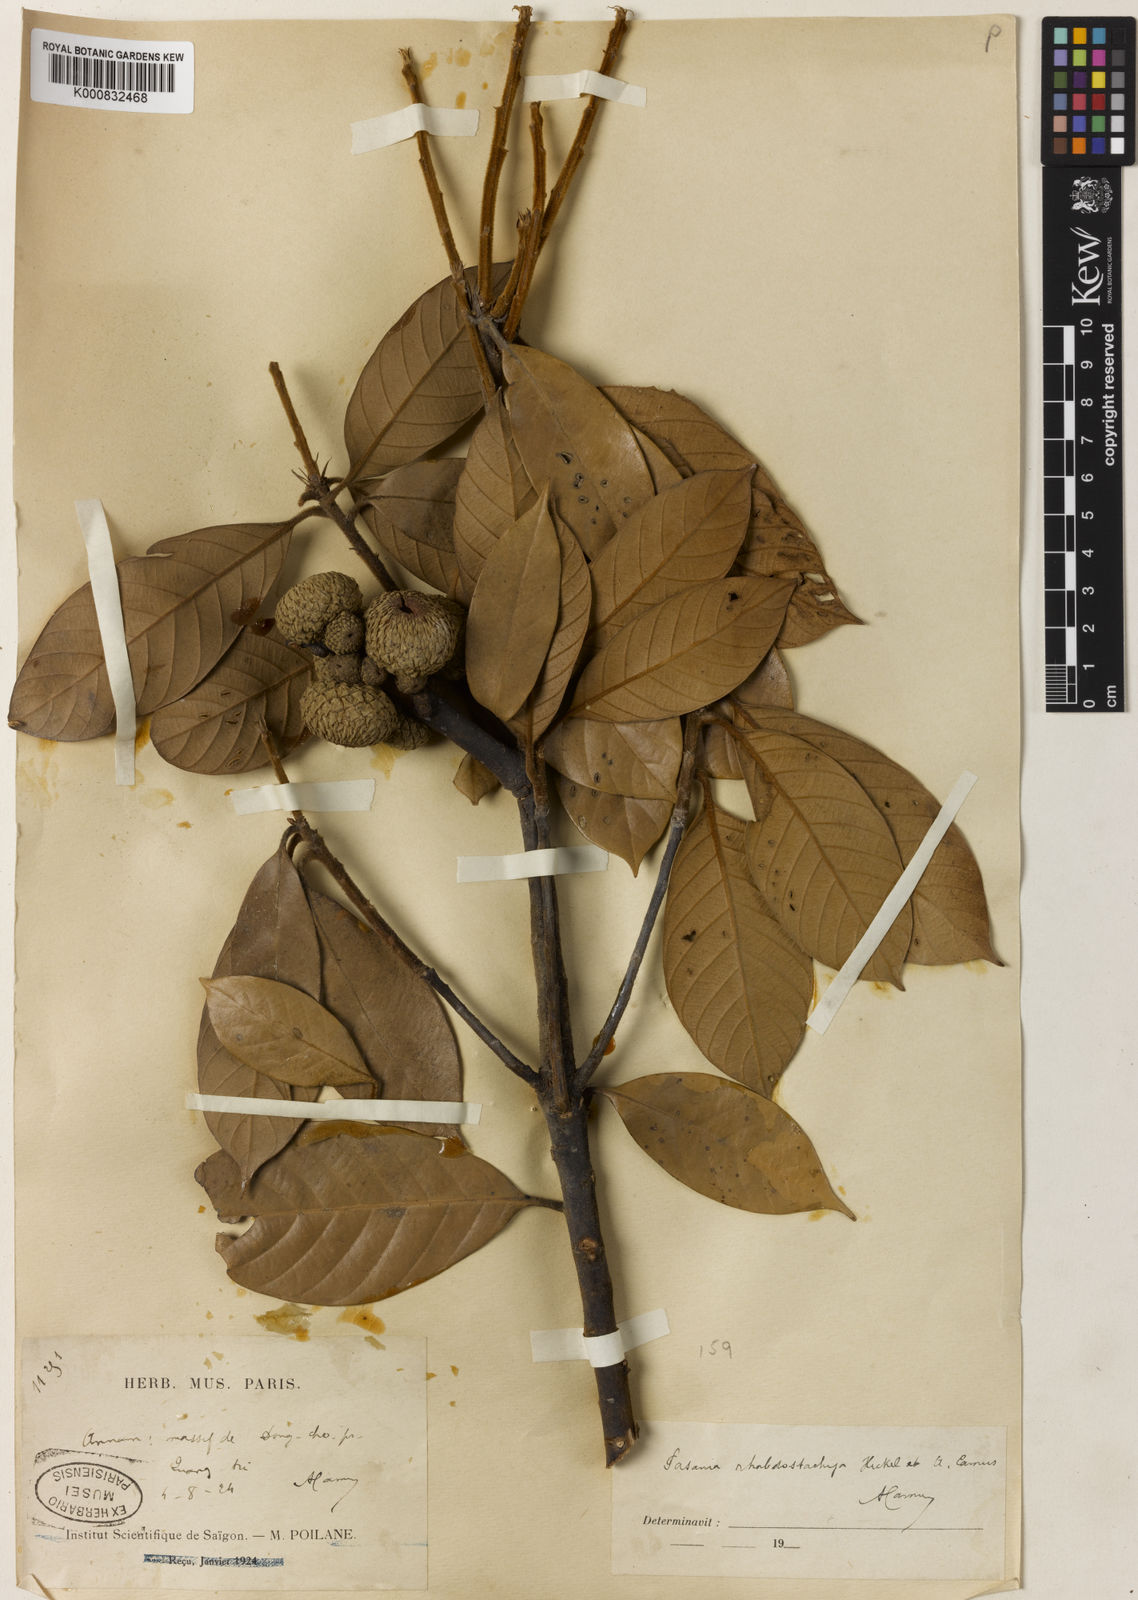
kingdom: Plantae
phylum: Tracheophyta
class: Magnoliopsida
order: Fagales
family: Fagaceae
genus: Lithocarpus
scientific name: Lithocarpus rhabdostachyus
